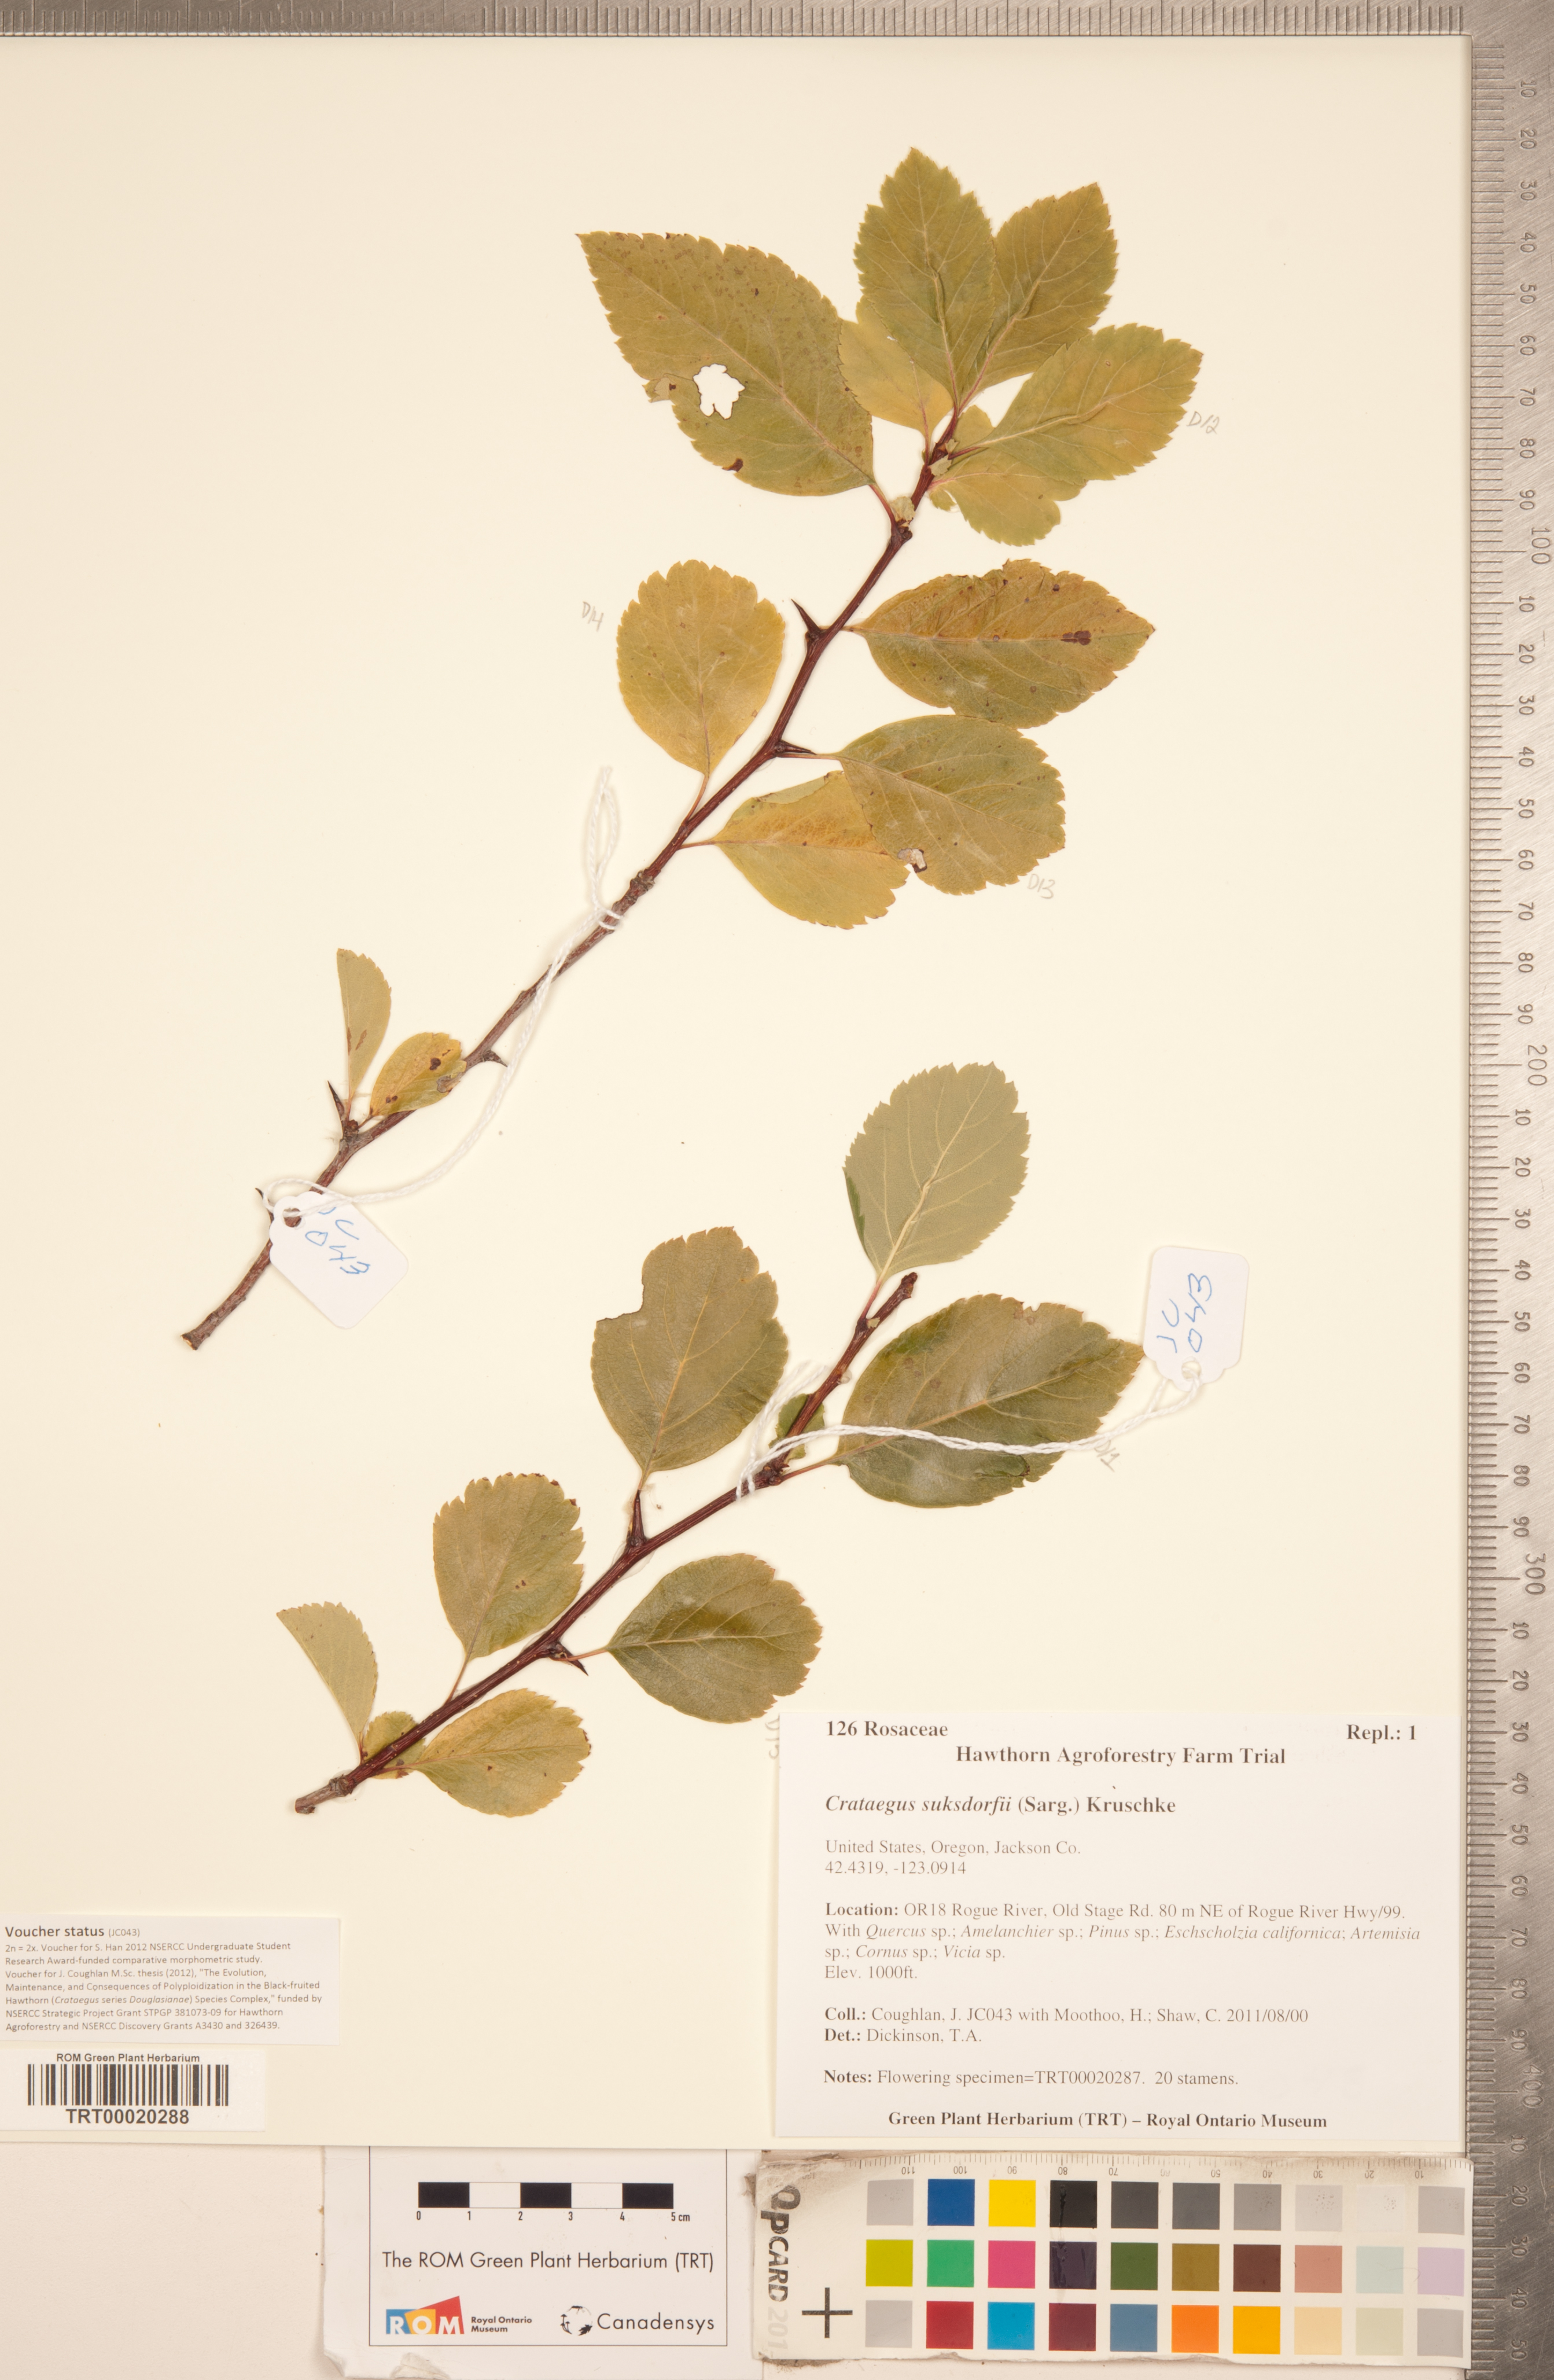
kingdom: Plantae
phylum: Tracheophyta
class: Magnoliopsida
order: Rosales
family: Rosaceae
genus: Crataegus
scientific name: Crataegus gaylussacia
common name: Huckleberry hawthorn
